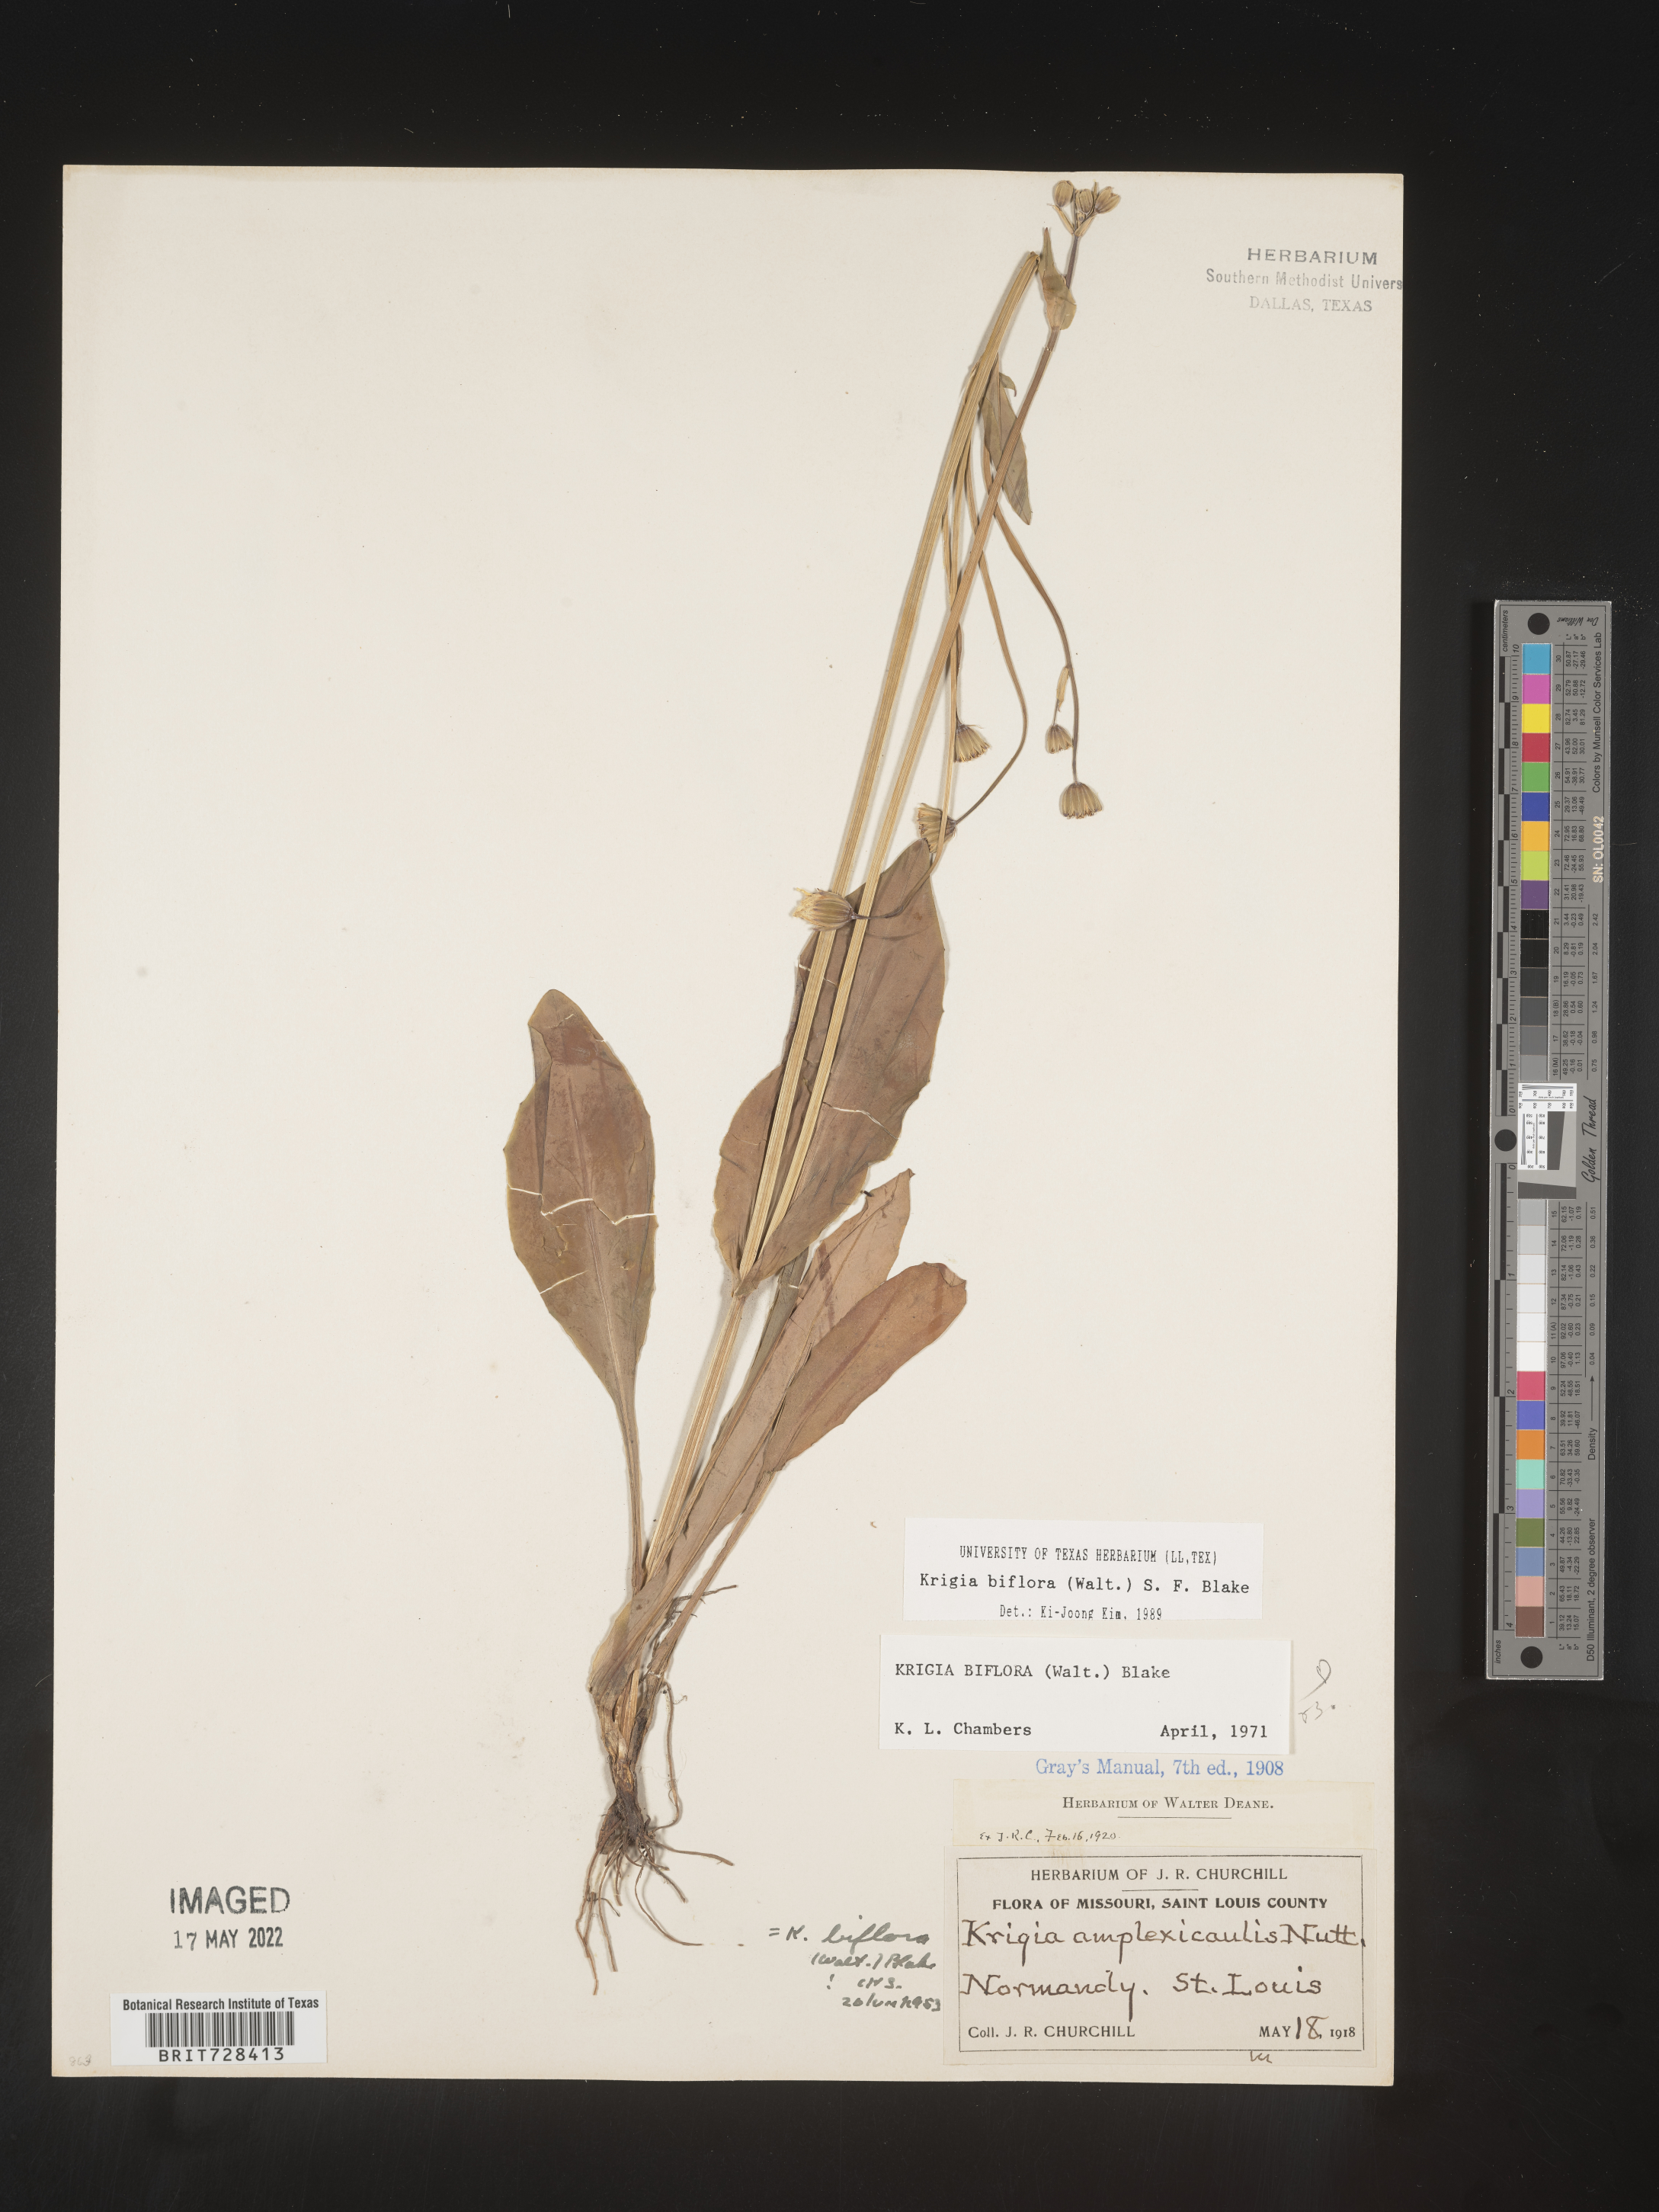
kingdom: Plantae
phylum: Tracheophyta
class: Magnoliopsida
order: Asterales
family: Asteraceae
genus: Krigia
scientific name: Krigia biflora
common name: Orange dwarf-dandelion
